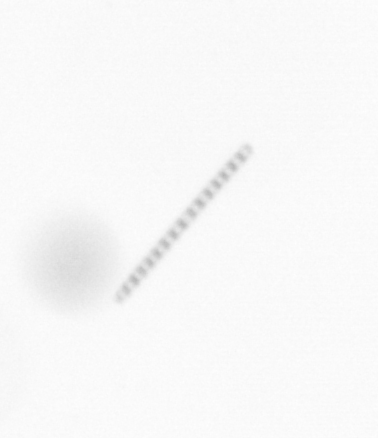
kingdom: Chromista
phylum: Ochrophyta
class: Bacillariophyceae
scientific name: Bacillariophyceae
